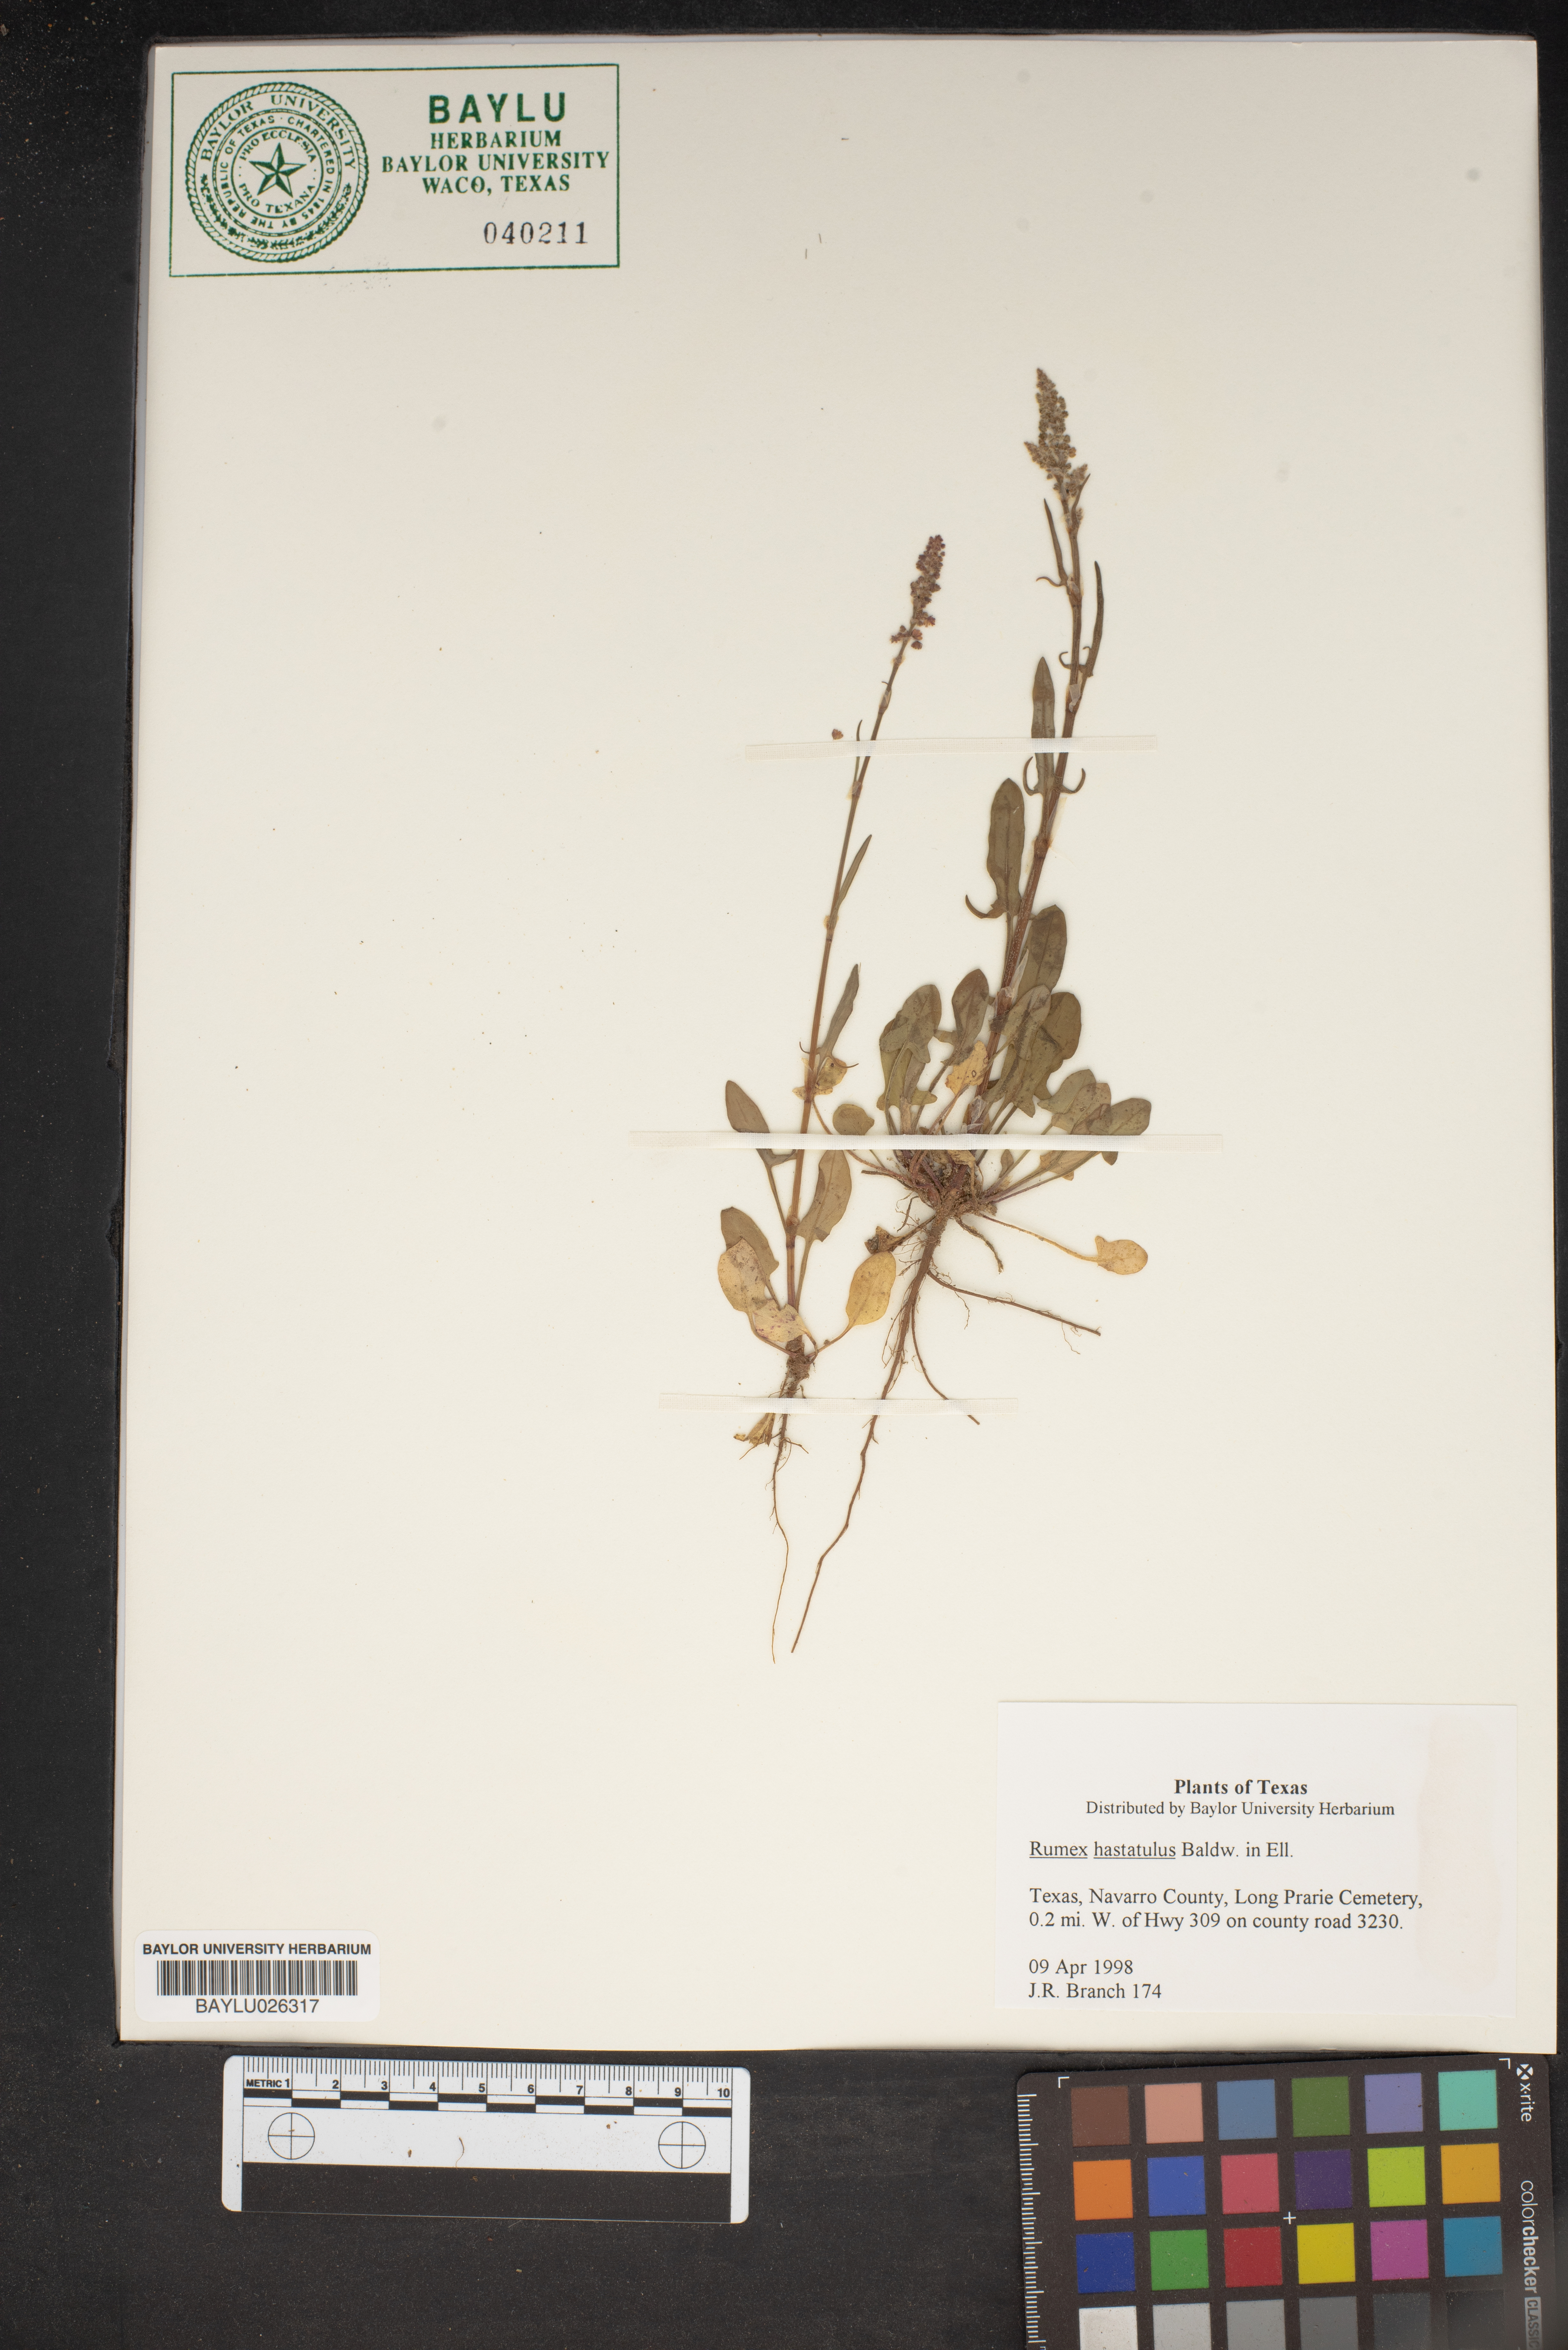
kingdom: Plantae
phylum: Tracheophyta
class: Magnoliopsida
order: Caryophyllales
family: Polygonaceae
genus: Rumex
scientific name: Rumex hastatulus
